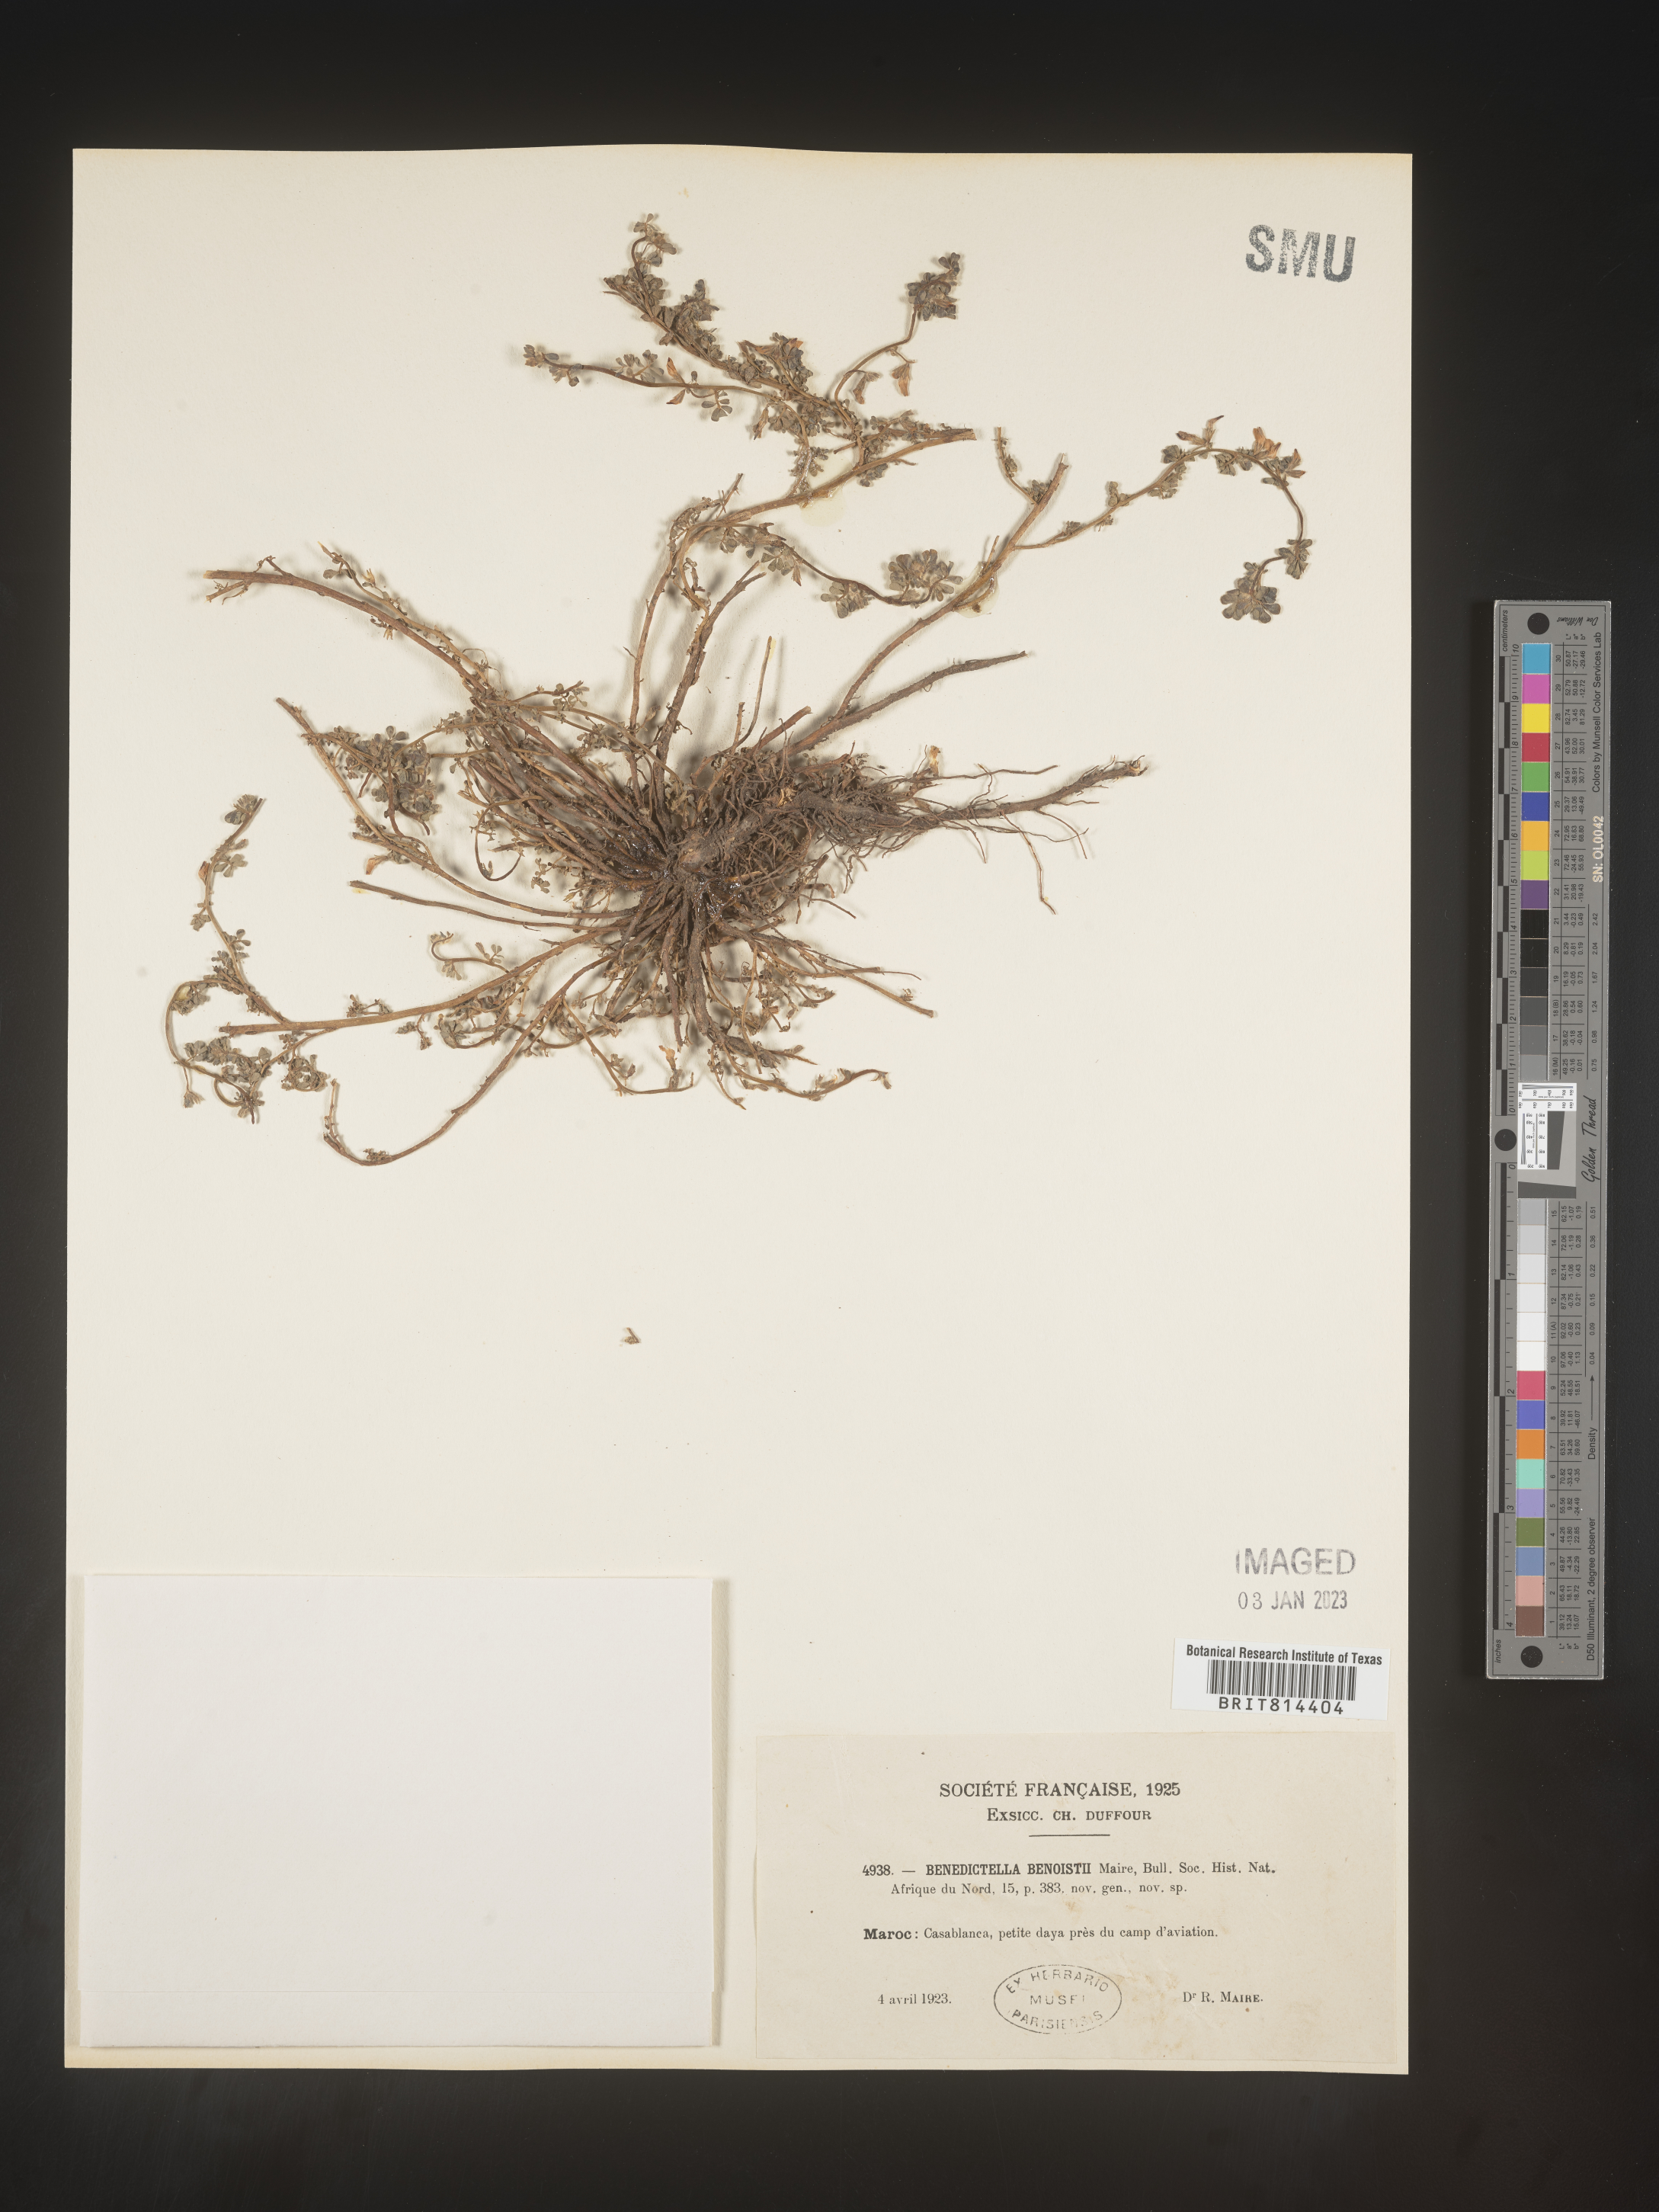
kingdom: Plantae
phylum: Tracheophyta
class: Magnoliopsida
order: Fabales
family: Fabaceae
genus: Lotus
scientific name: Lotus
